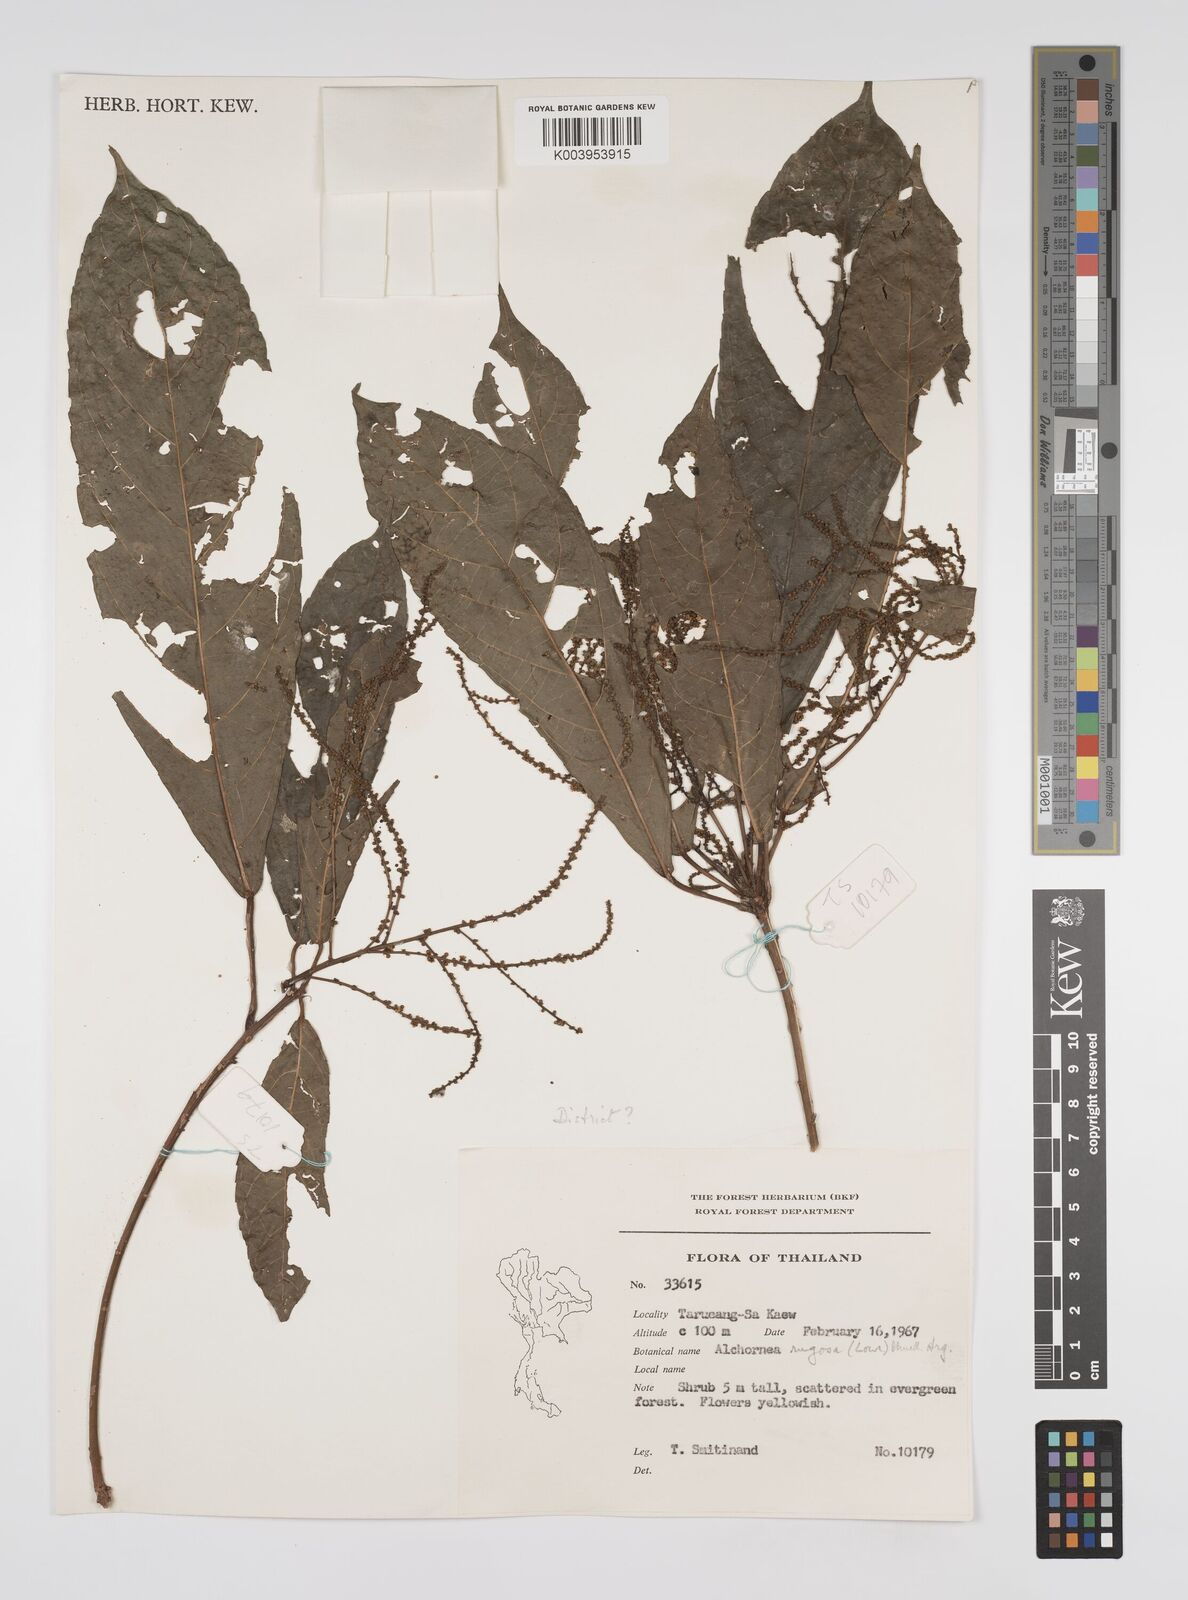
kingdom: Plantae
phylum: Tracheophyta
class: Magnoliopsida
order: Malpighiales
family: Euphorbiaceae
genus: Alchornea
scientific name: Alchornea rugosa
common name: Alchorntree
